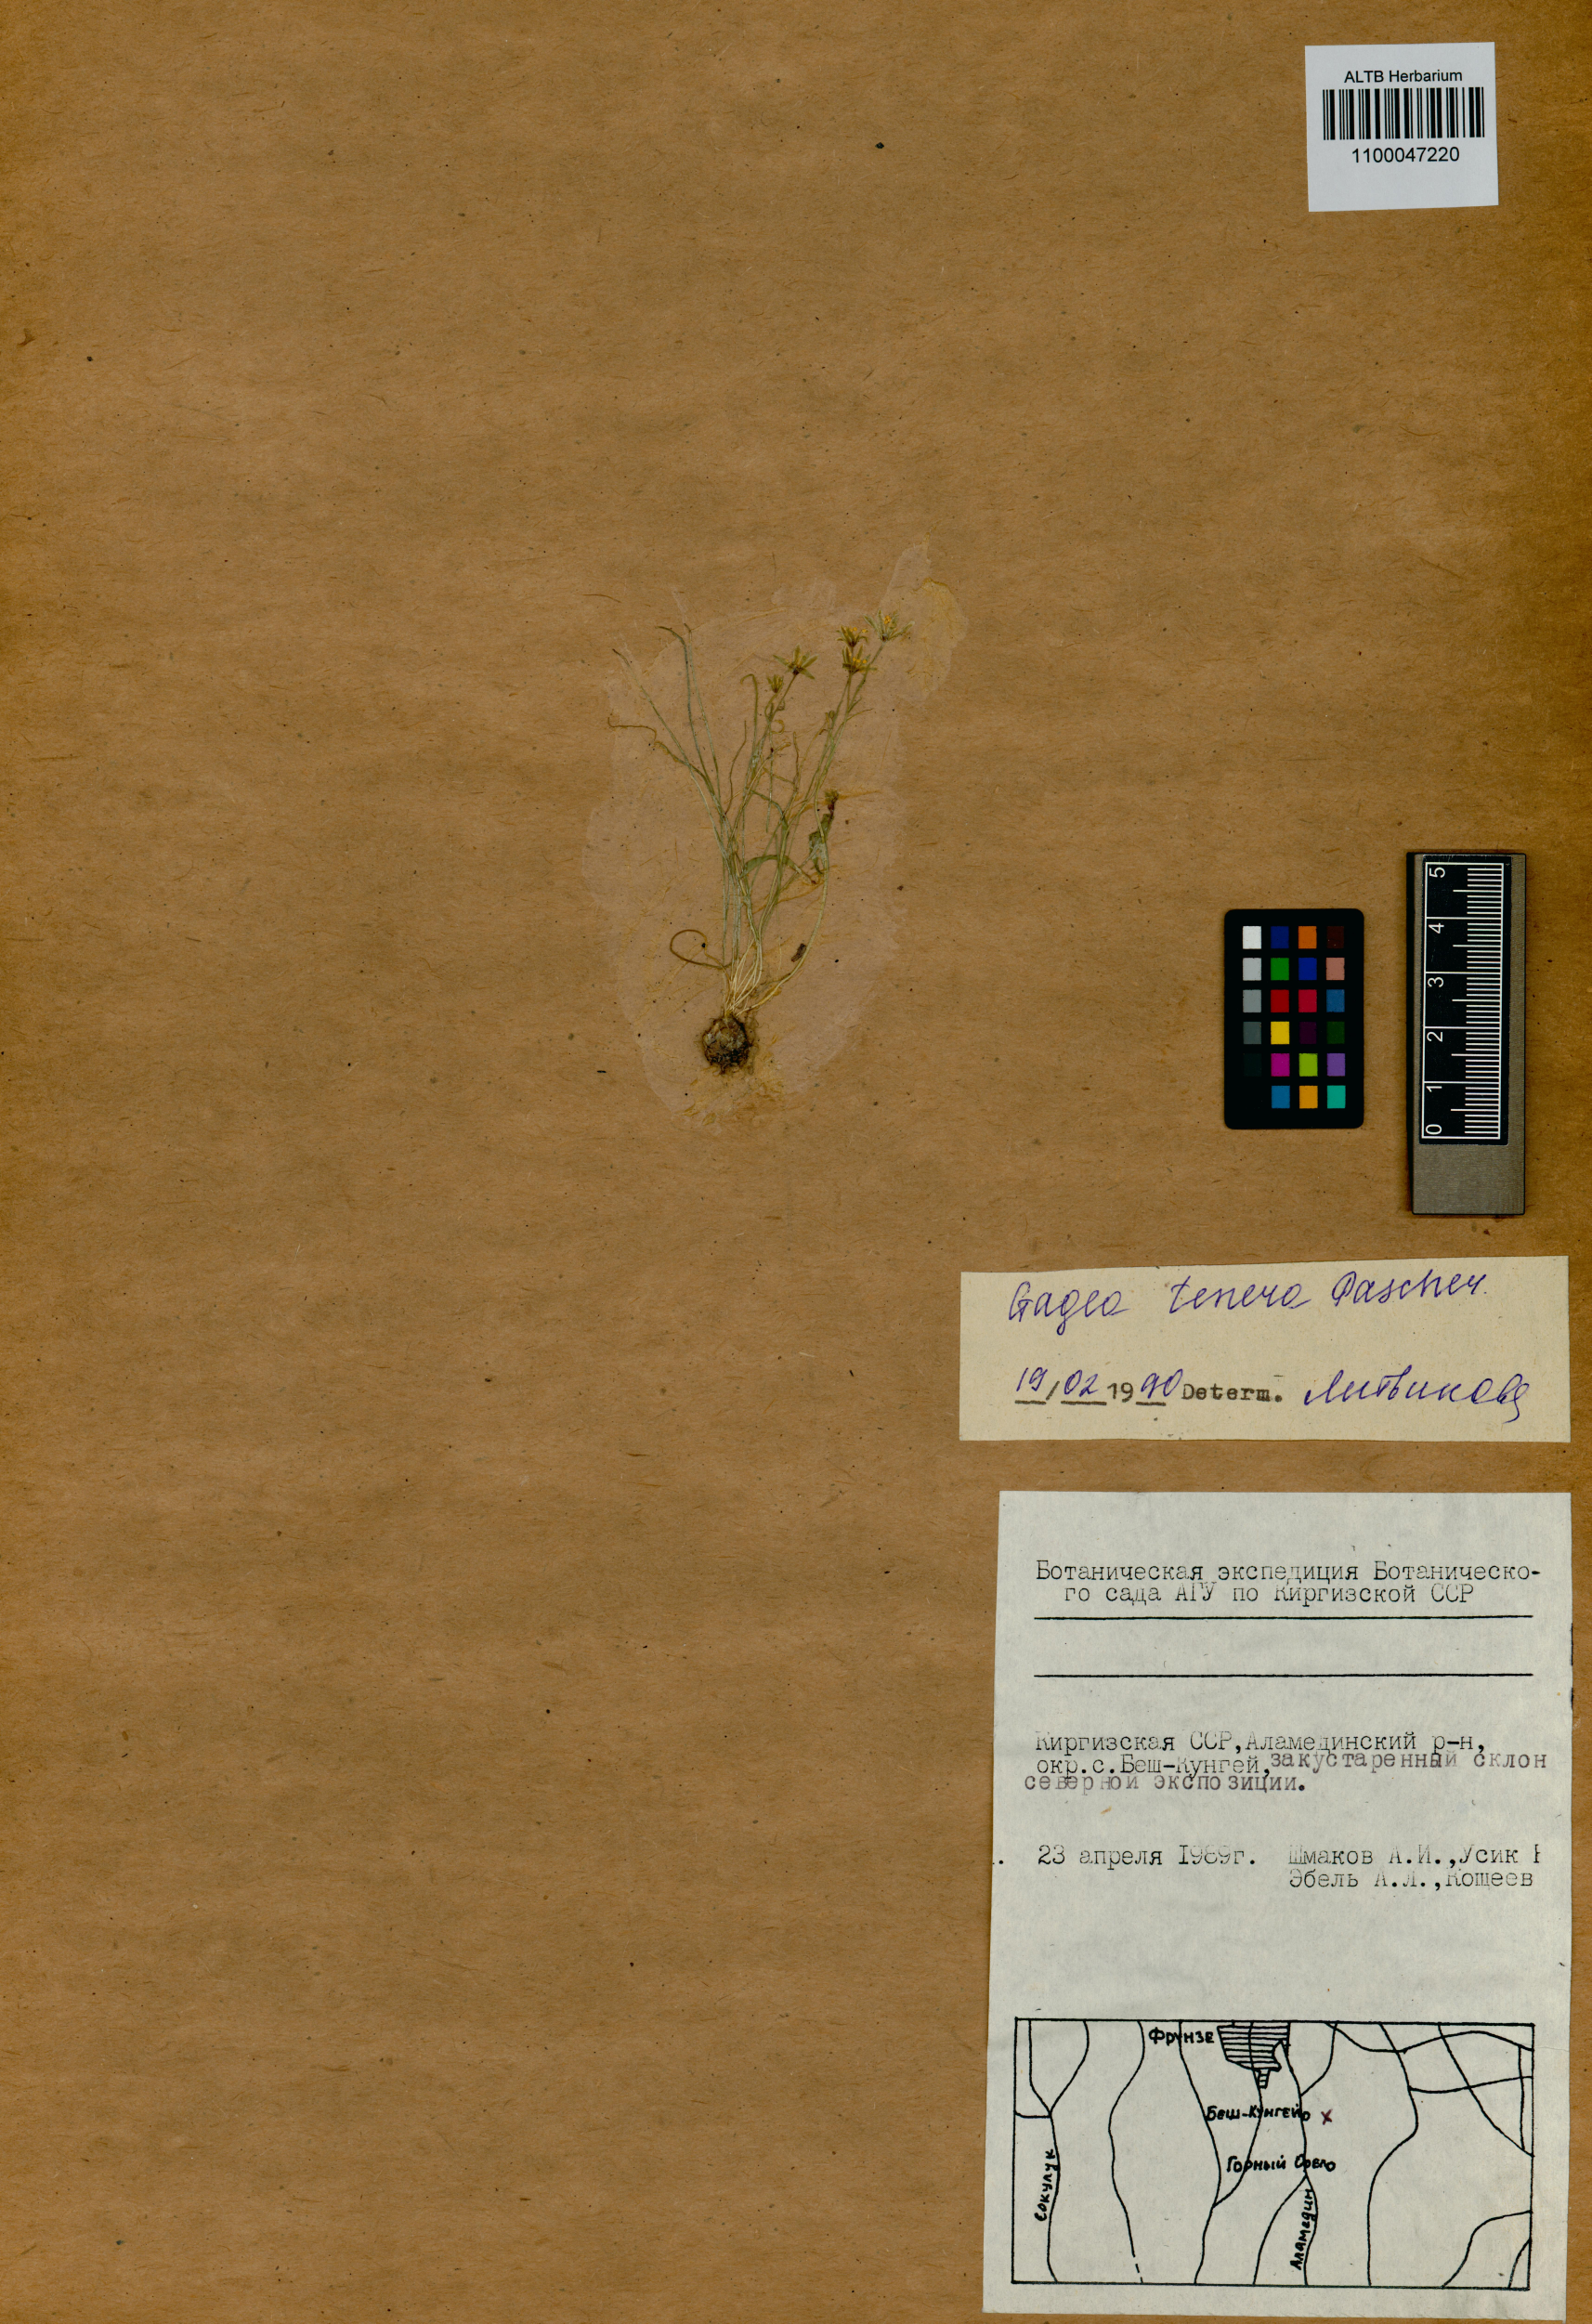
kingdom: Plantae
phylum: Tracheophyta
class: Liliopsida
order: Liliales
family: Liliaceae
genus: Gagea
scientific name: Gagea tenera
